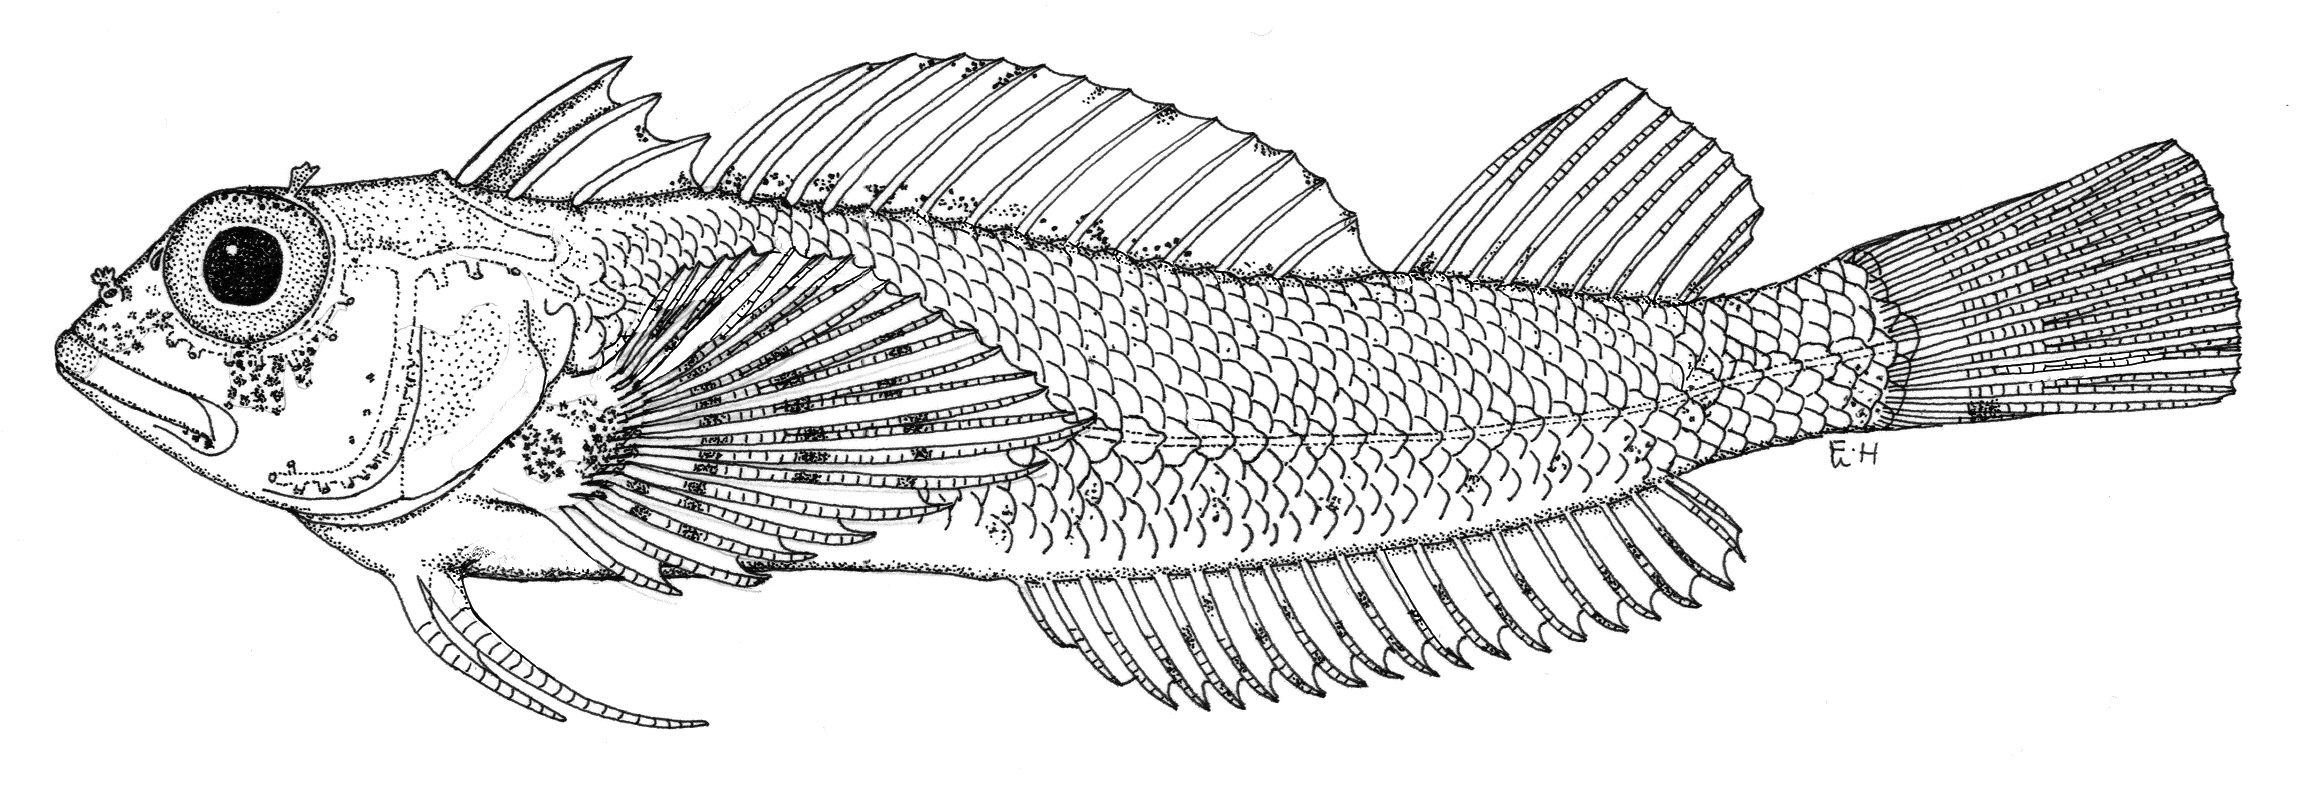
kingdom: Animalia
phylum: Chordata
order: Perciformes
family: Tripterygiidae
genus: Helcogramma
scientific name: Helcogramma ellioti
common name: Red-eye threefin
